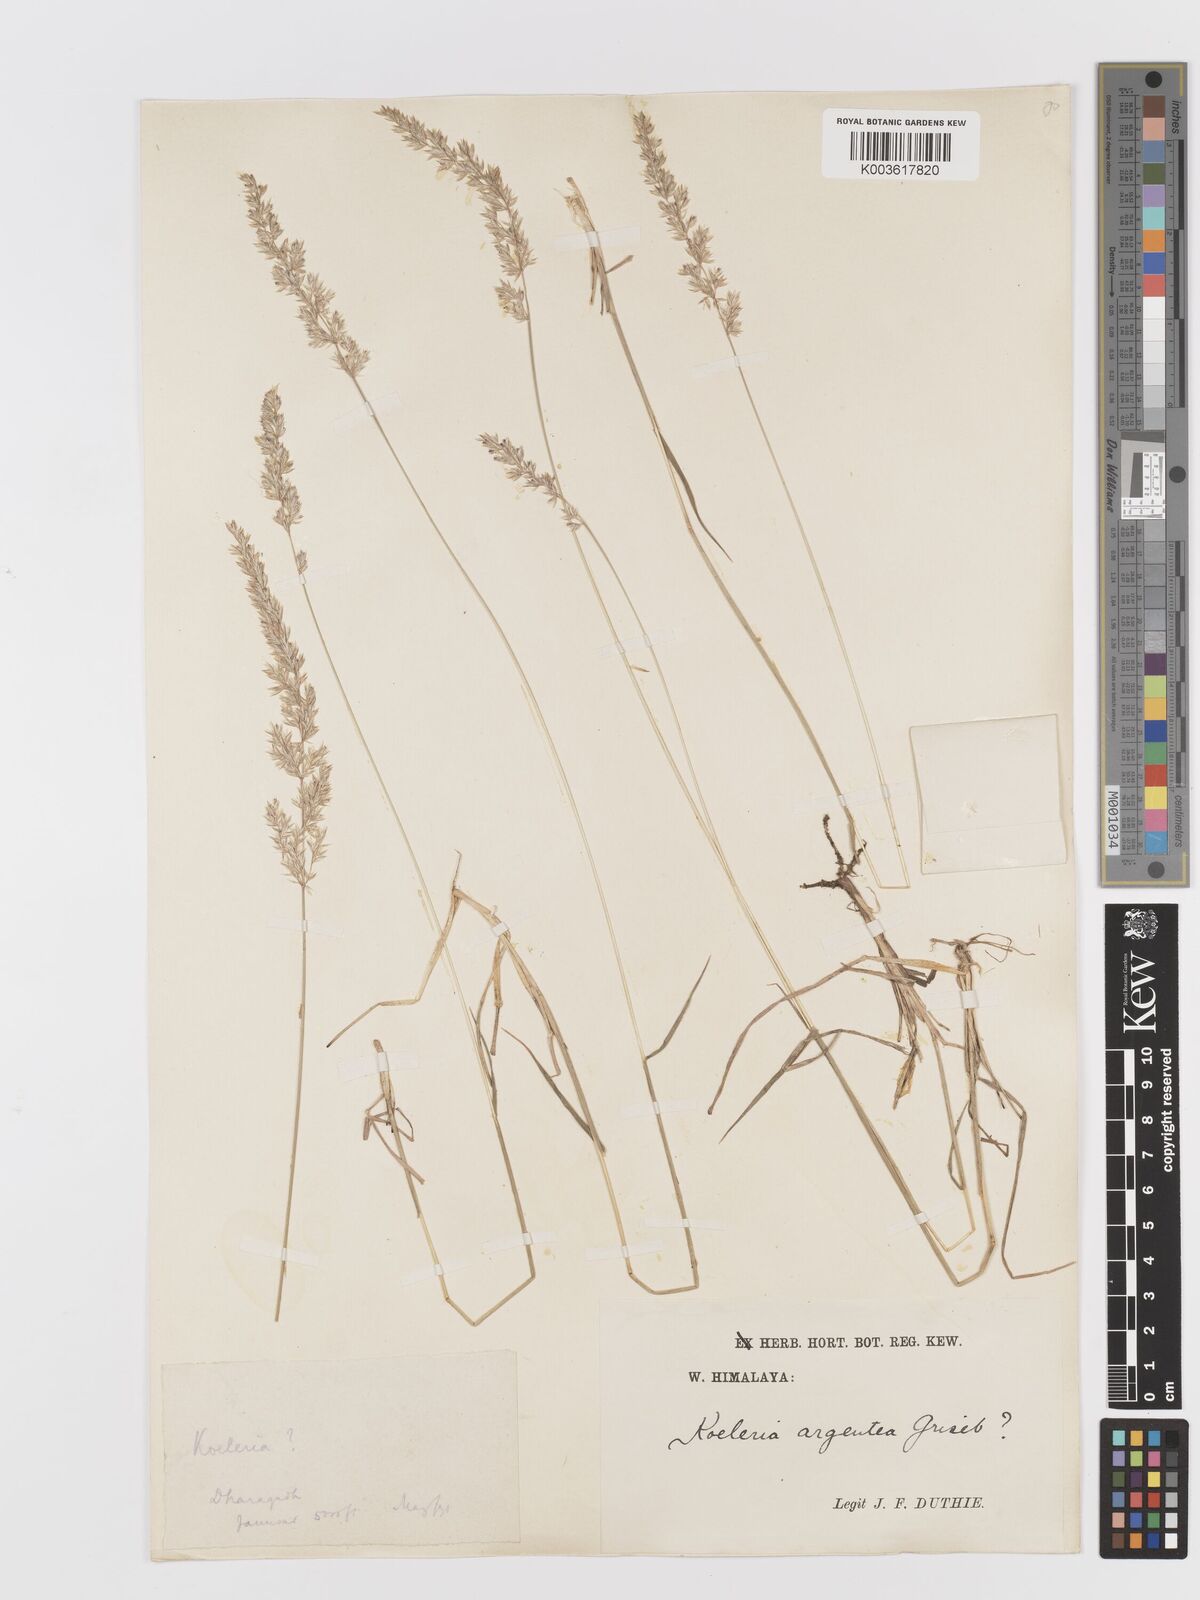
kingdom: Plantae
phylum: Tracheophyta
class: Liliopsida
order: Poales
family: Poaceae
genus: Koeleria
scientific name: Koeleria macrantha
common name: Crested hair-grass
